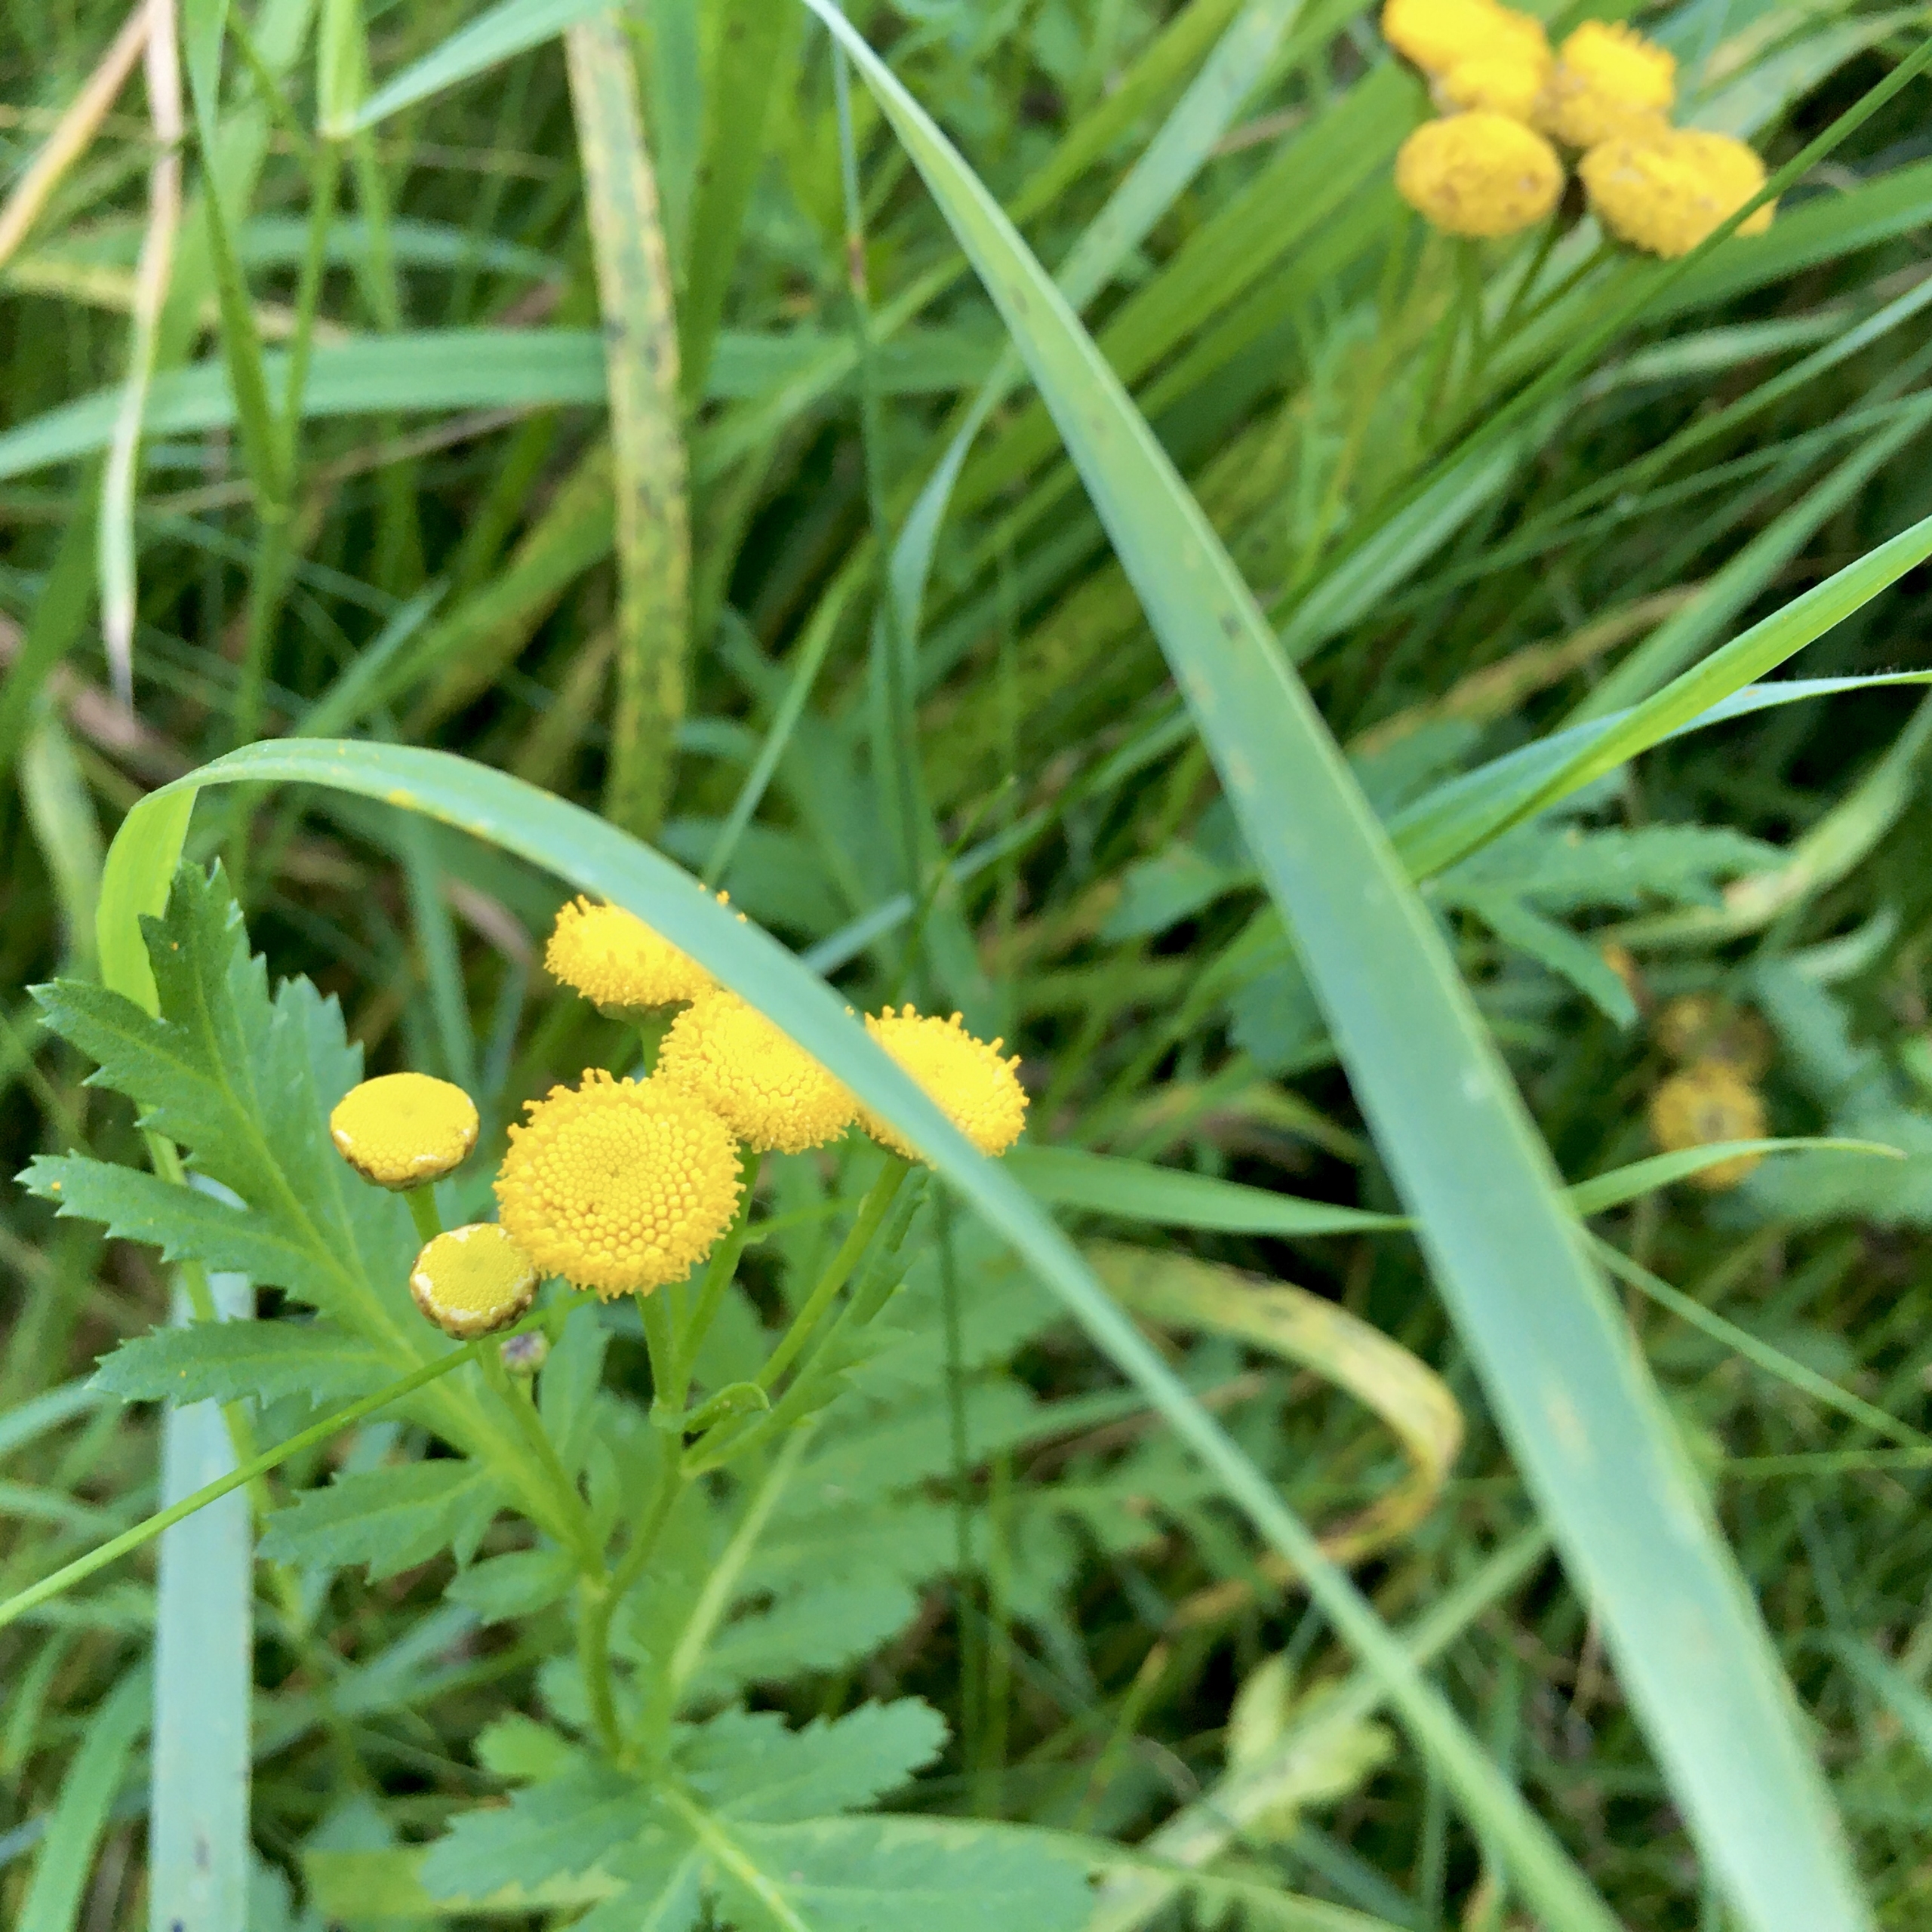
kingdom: Plantae
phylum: Tracheophyta
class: Magnoliopsida
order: Asterales
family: Asteraceae
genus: Tanacetum
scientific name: Tanacetum vulgare
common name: Rejnfan
